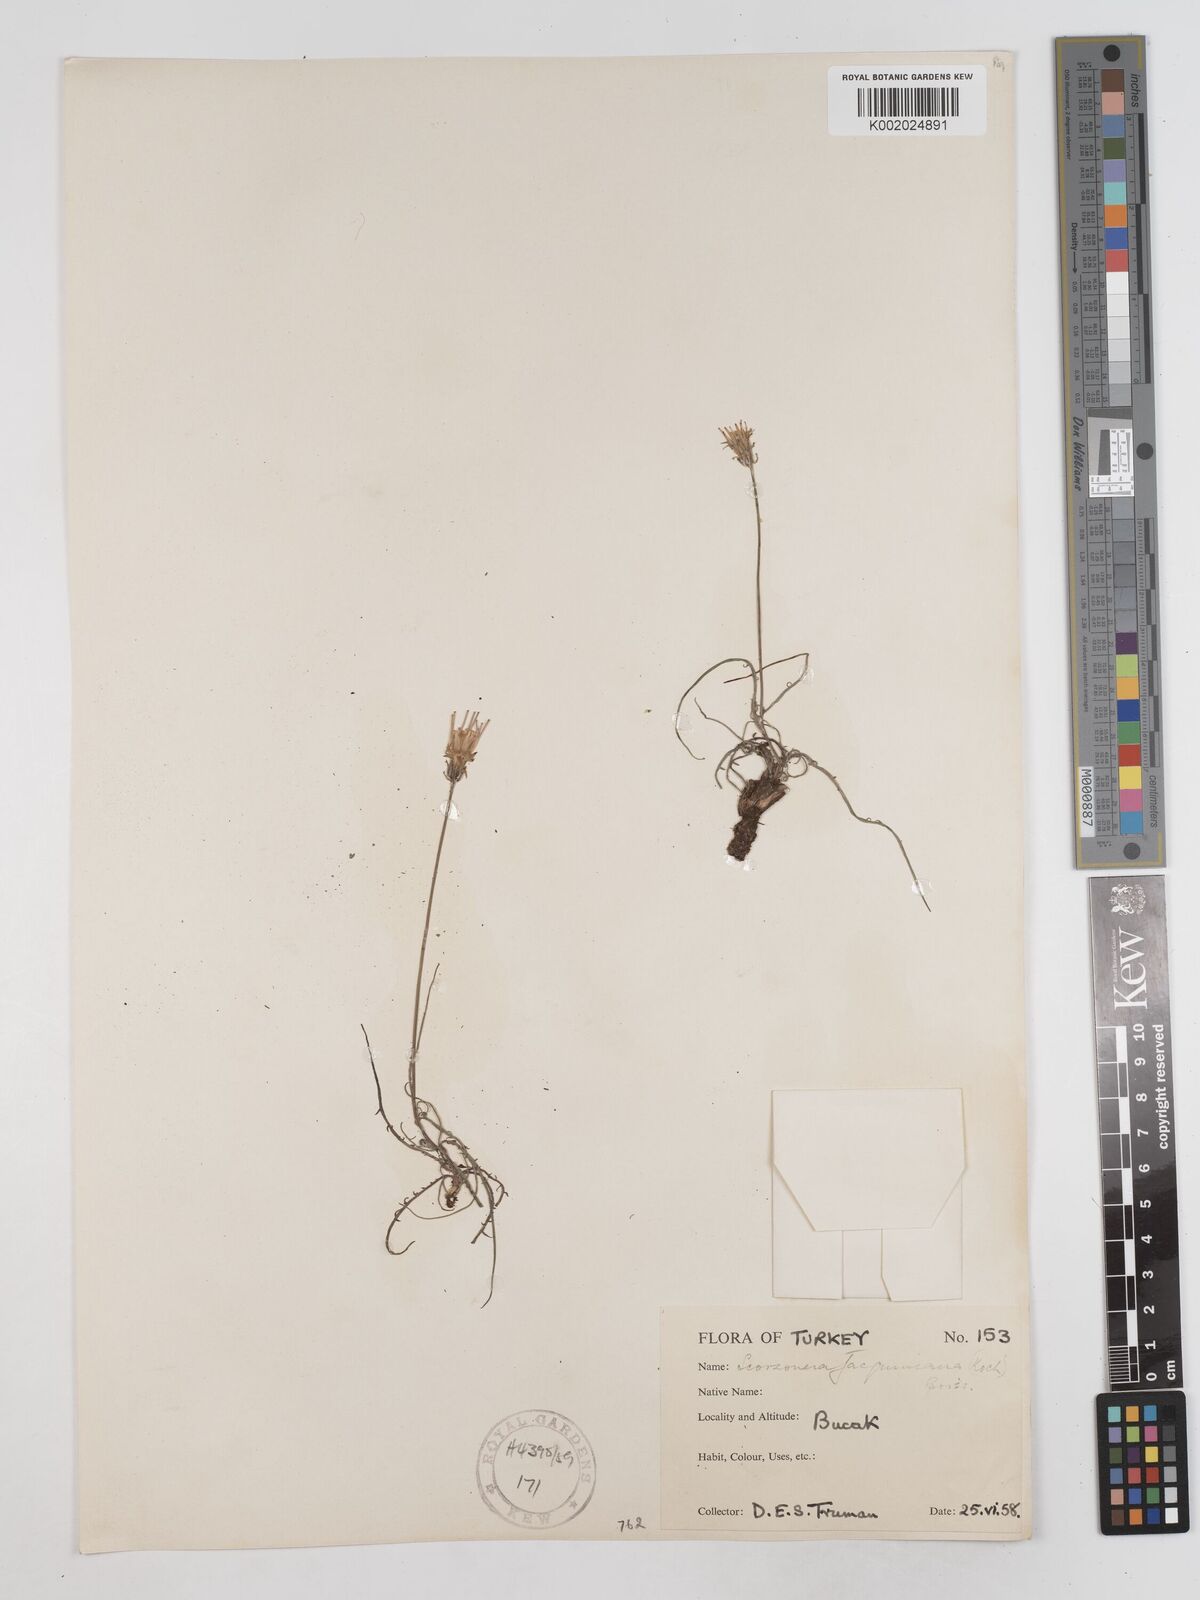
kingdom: Plantae
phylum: Tracheophyta
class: Magnoliopsida
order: Asterales
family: Asteraceae
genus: Scorzonera
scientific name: Scorzonera cana
